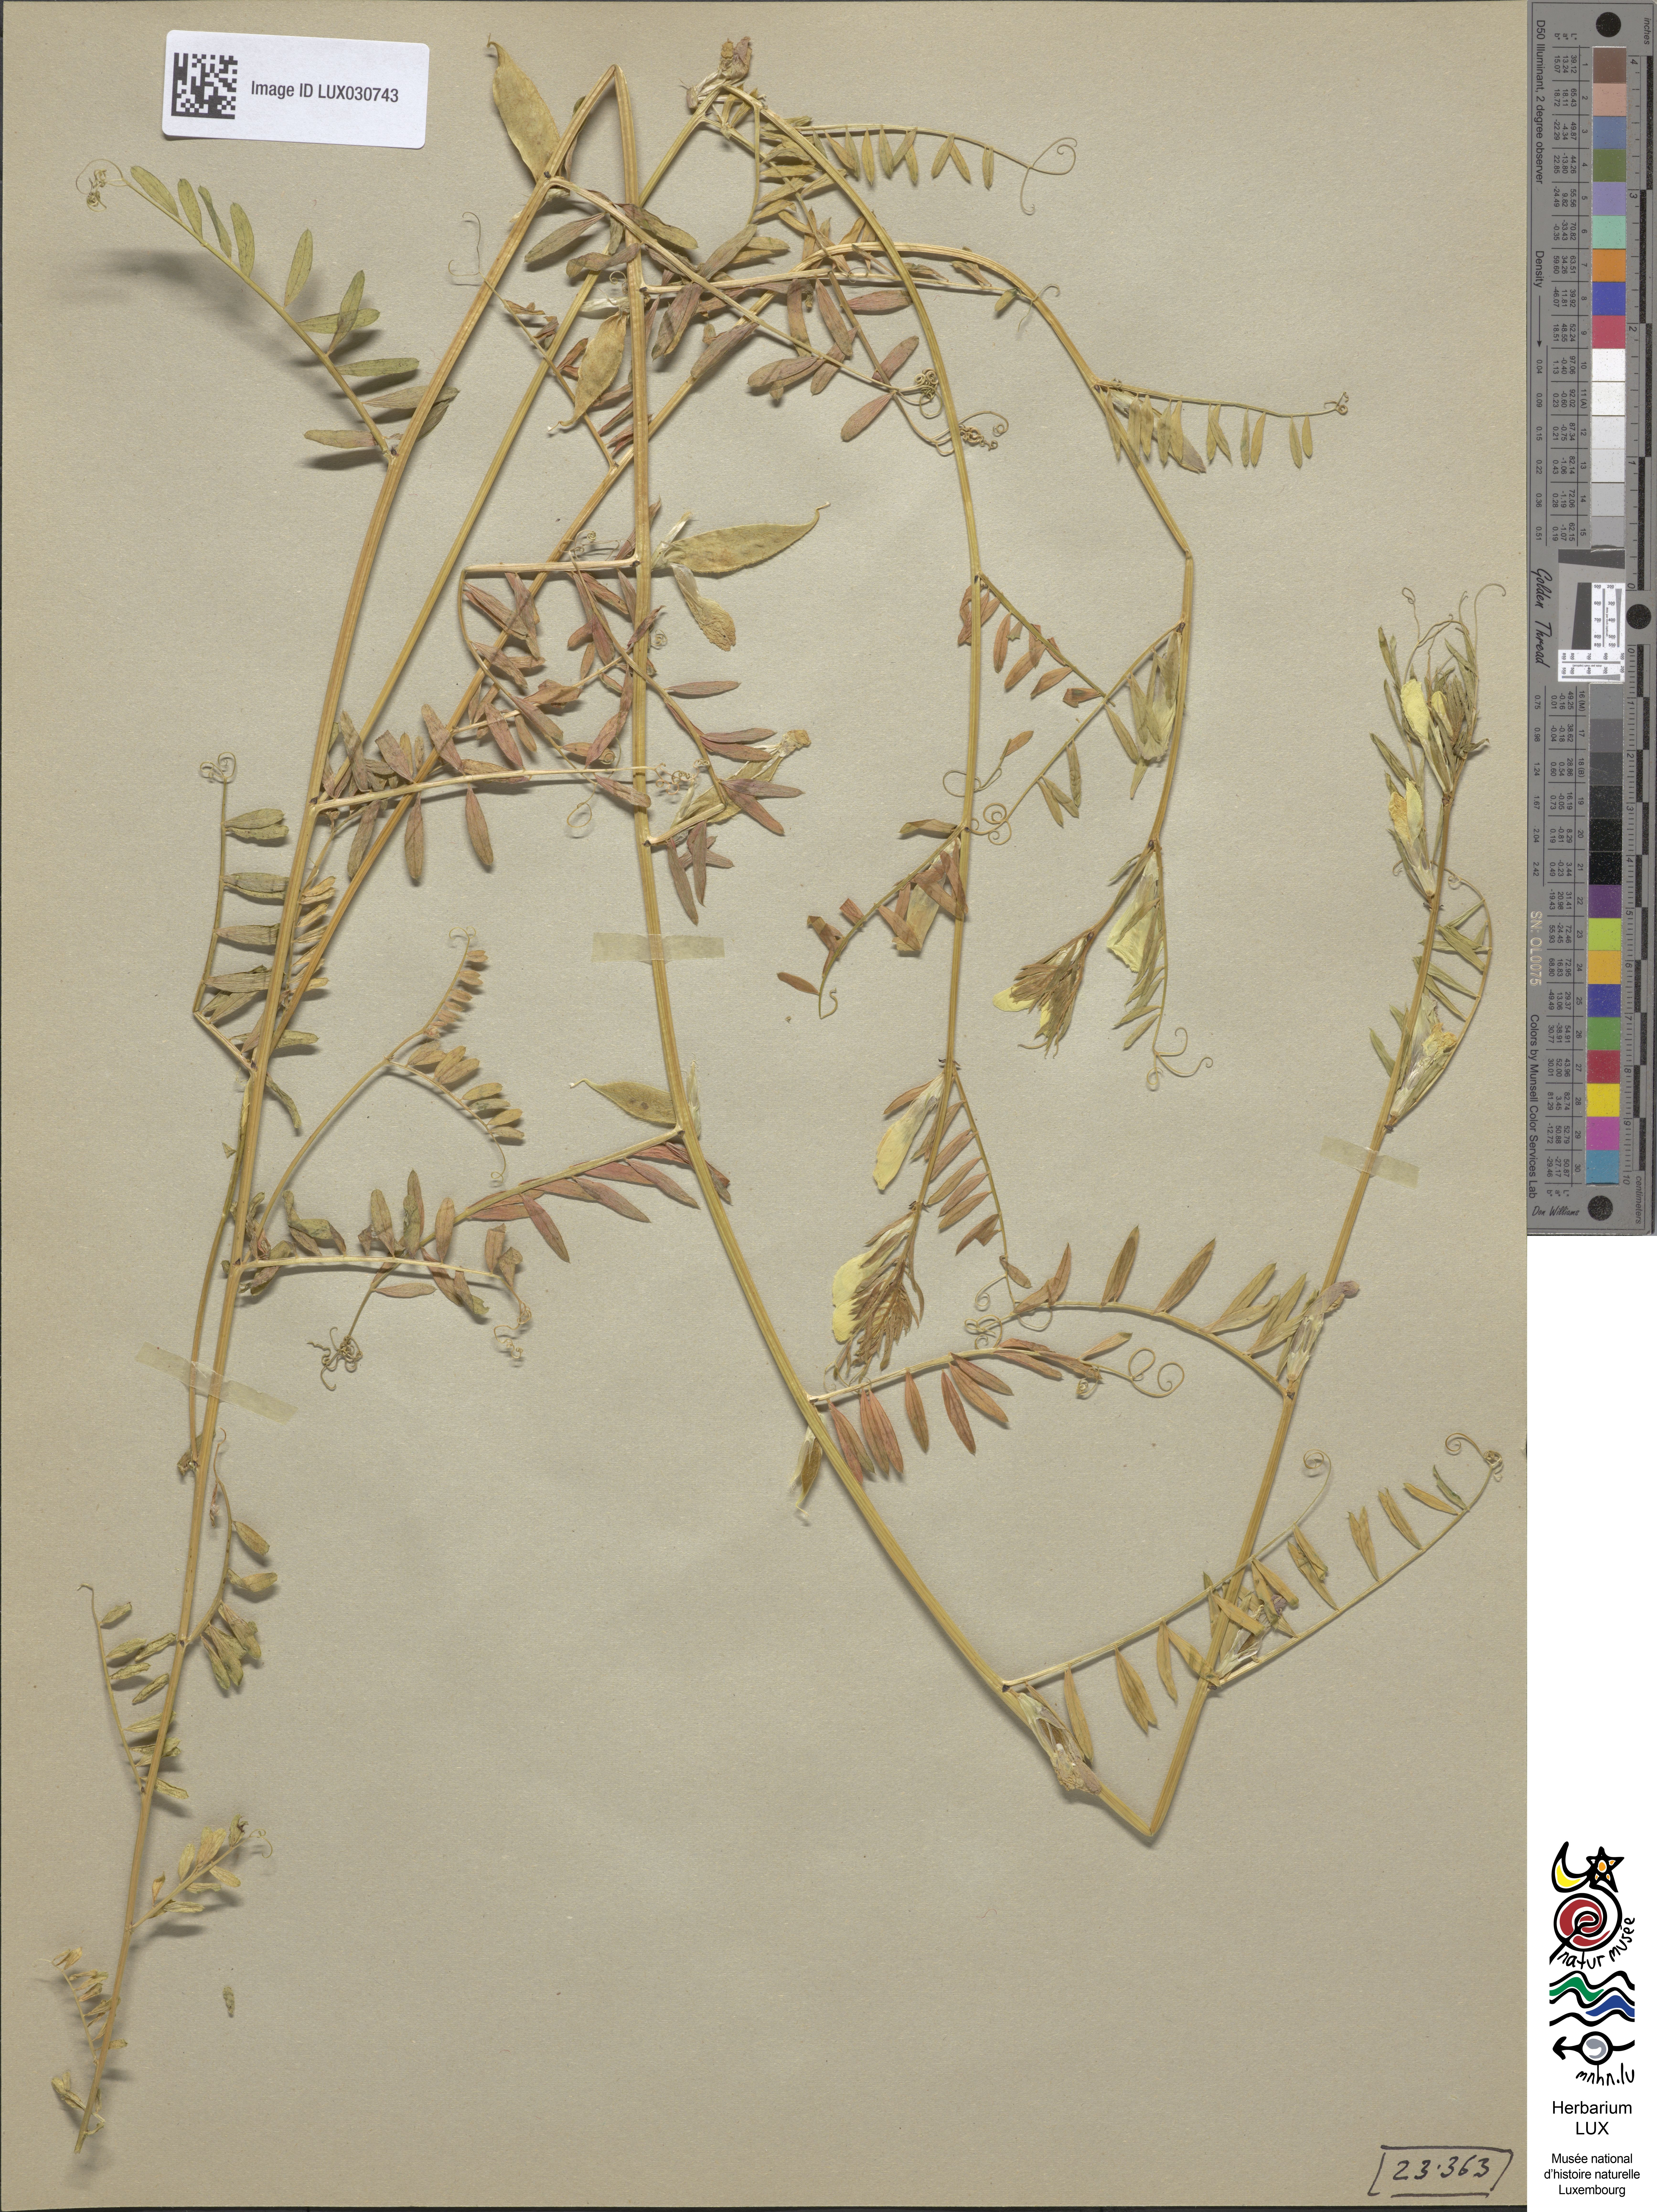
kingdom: Plantae
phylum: Tracheophyta
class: Magnoliopsida
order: Fabales
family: Fabaceae
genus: Vicia
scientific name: Vicia lutea
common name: Smooth yellow vetch
